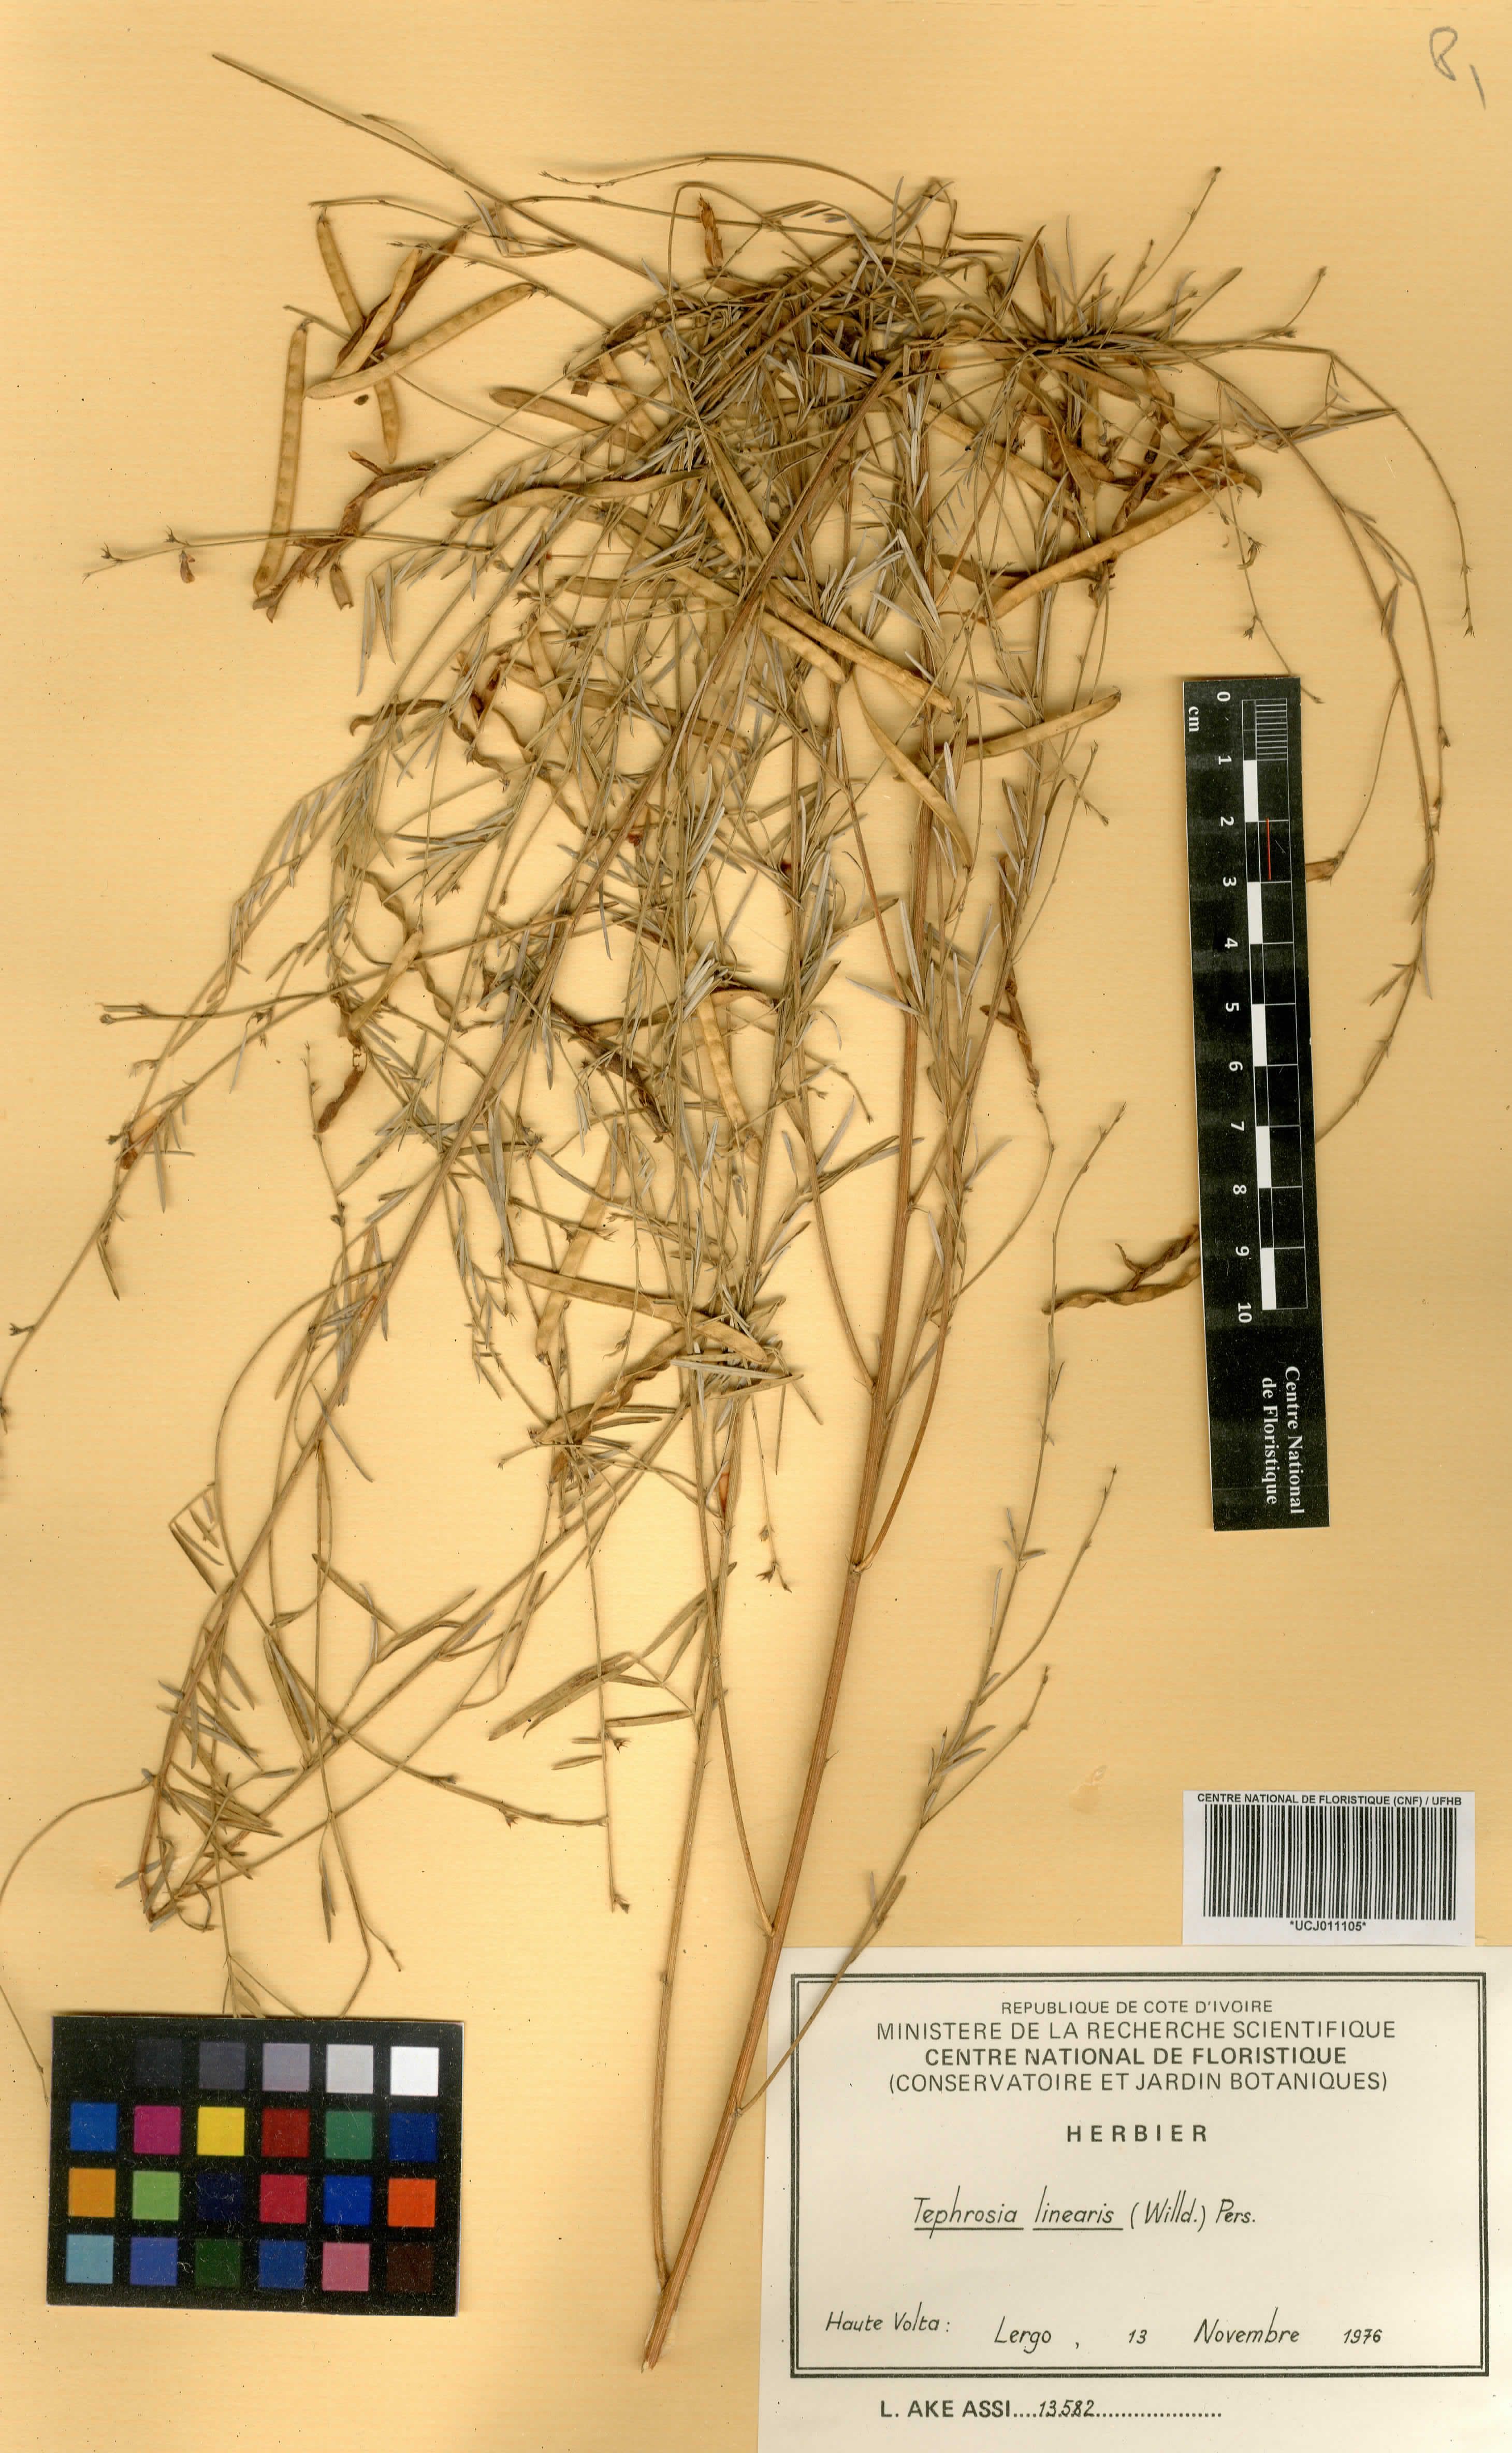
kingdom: Plantae
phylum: Tracheophyta
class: Magnoliopsida
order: Fabales
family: Fabaceae
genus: Tephrosia
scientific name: Tephrosia linearis
